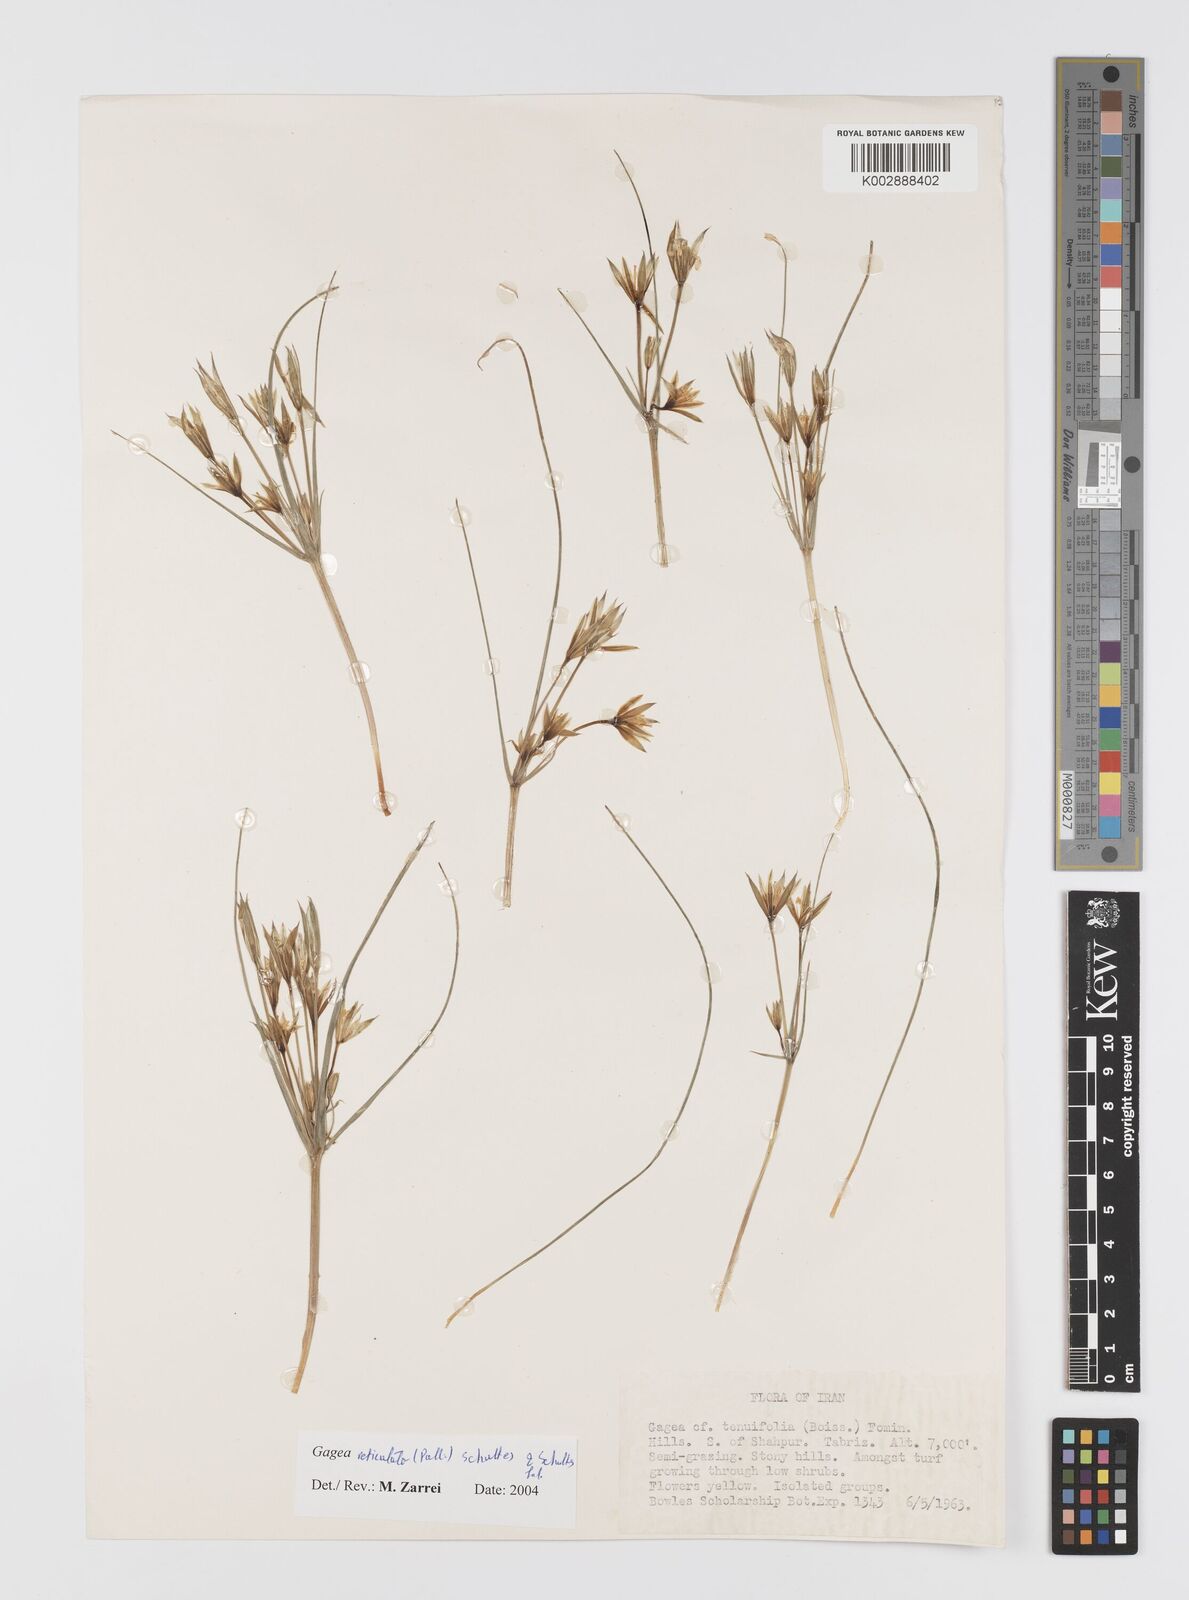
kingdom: Plantae
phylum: Tracheophyta
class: Liliopsida
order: Liliales
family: Liliaceae
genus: Gagea
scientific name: Gagea reticulata
